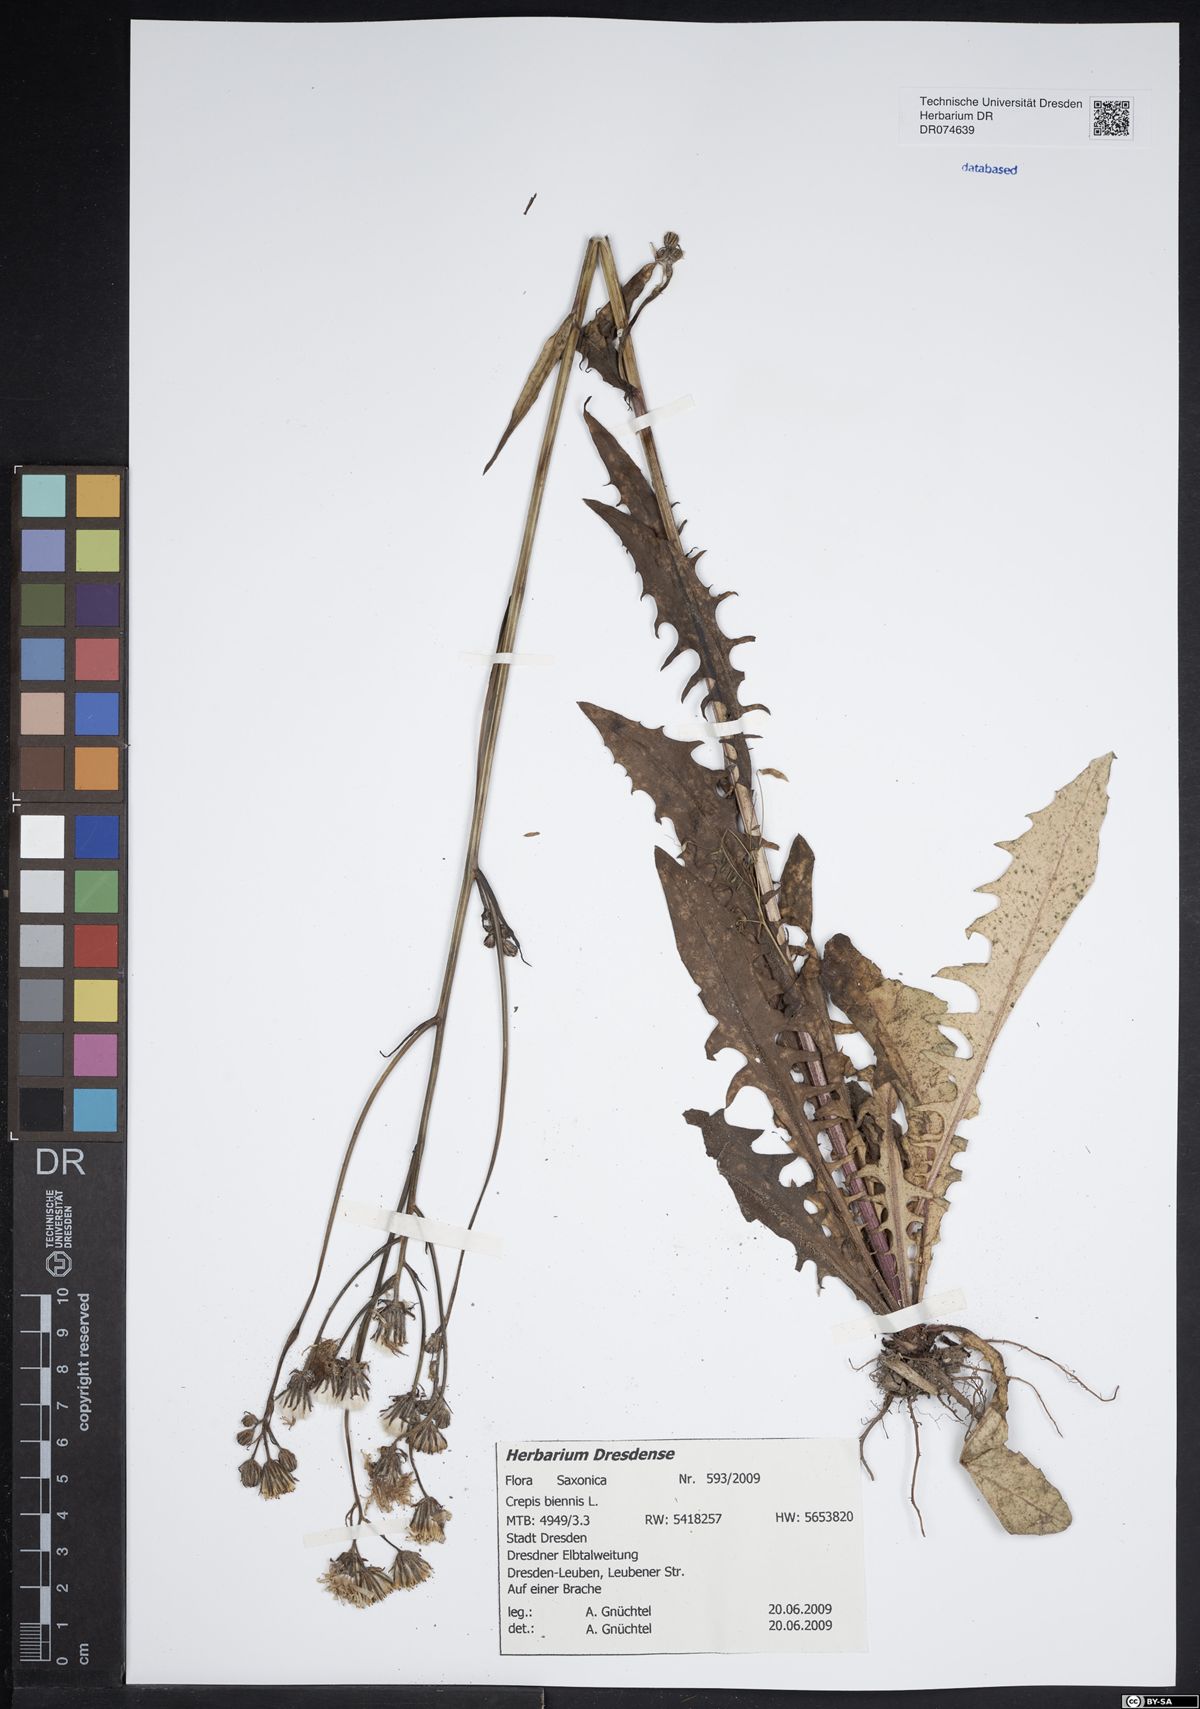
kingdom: Plantae
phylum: Tracheophyta
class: Magnoliopsida
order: Asterales
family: Asteraceae
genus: Crepis
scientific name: Crepis biennis
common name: Rough hawk's-beard
